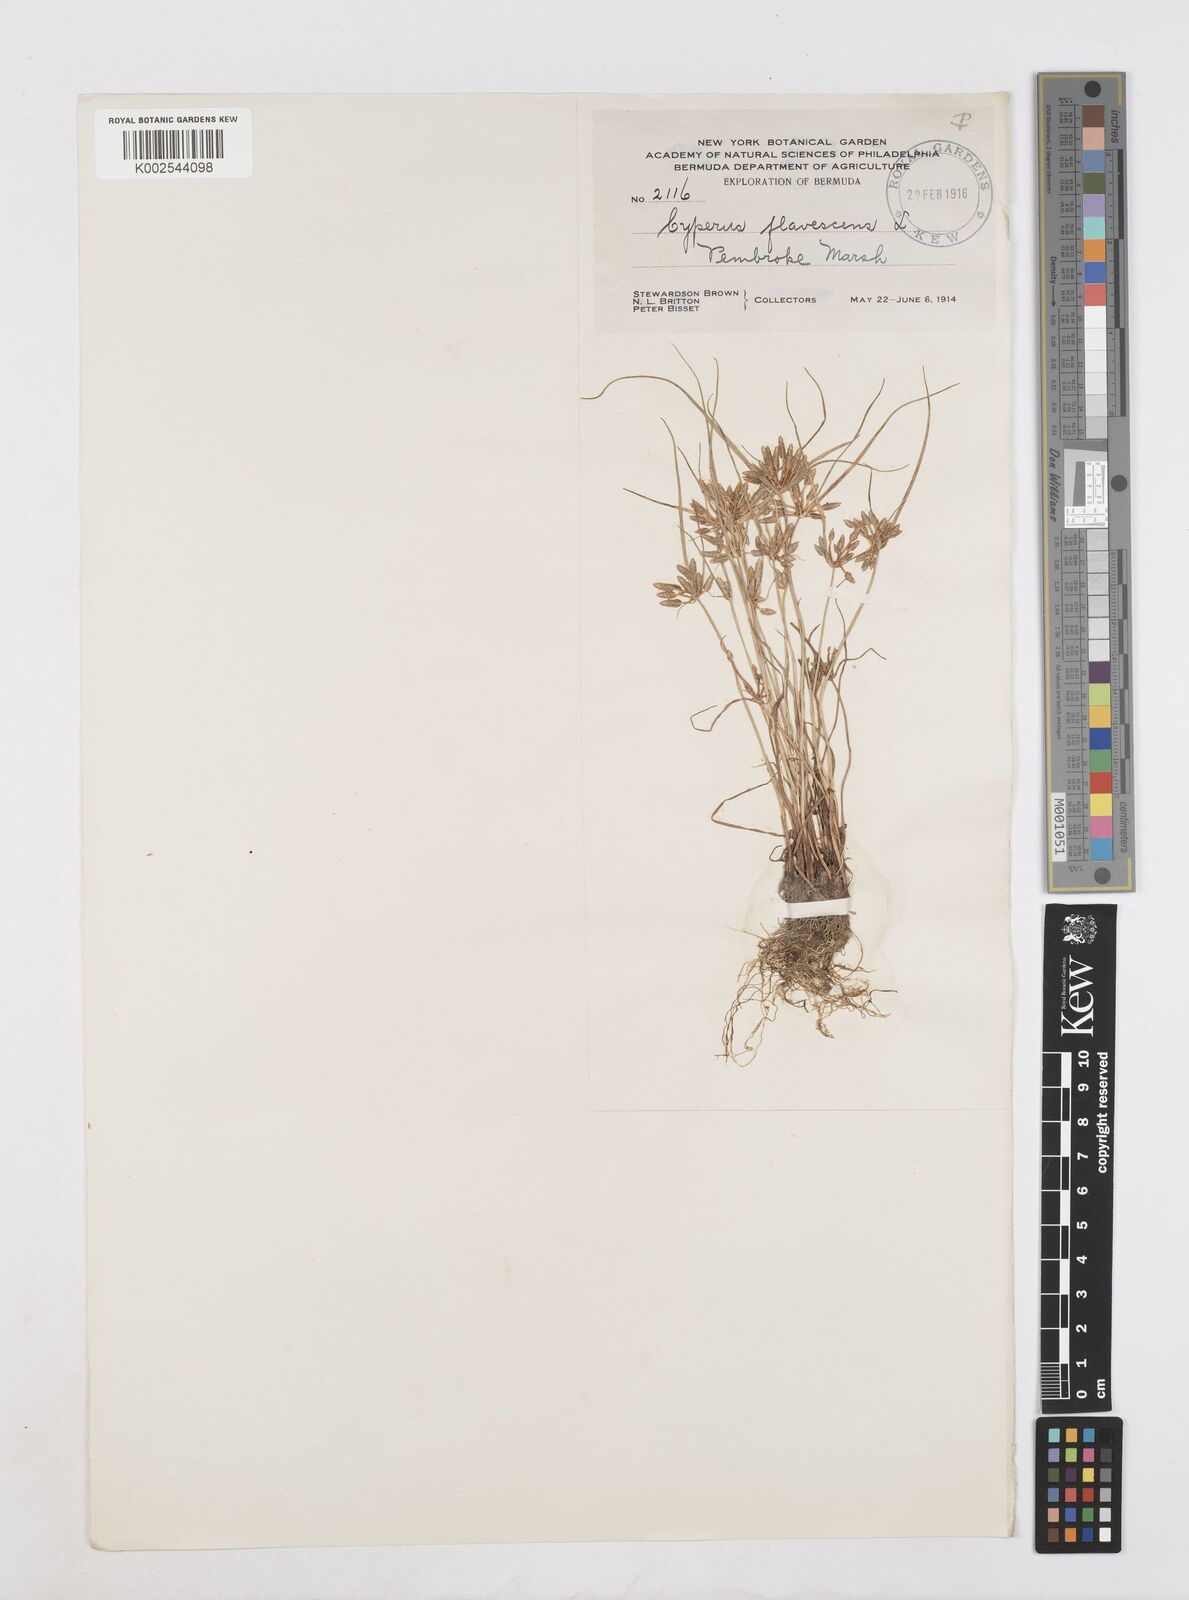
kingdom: Plantae
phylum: Tracheophyta
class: Liliopsida
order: Poales
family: Cyperaceae
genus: Cyperus
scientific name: Cyperus flavescens
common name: Yellow galingale
